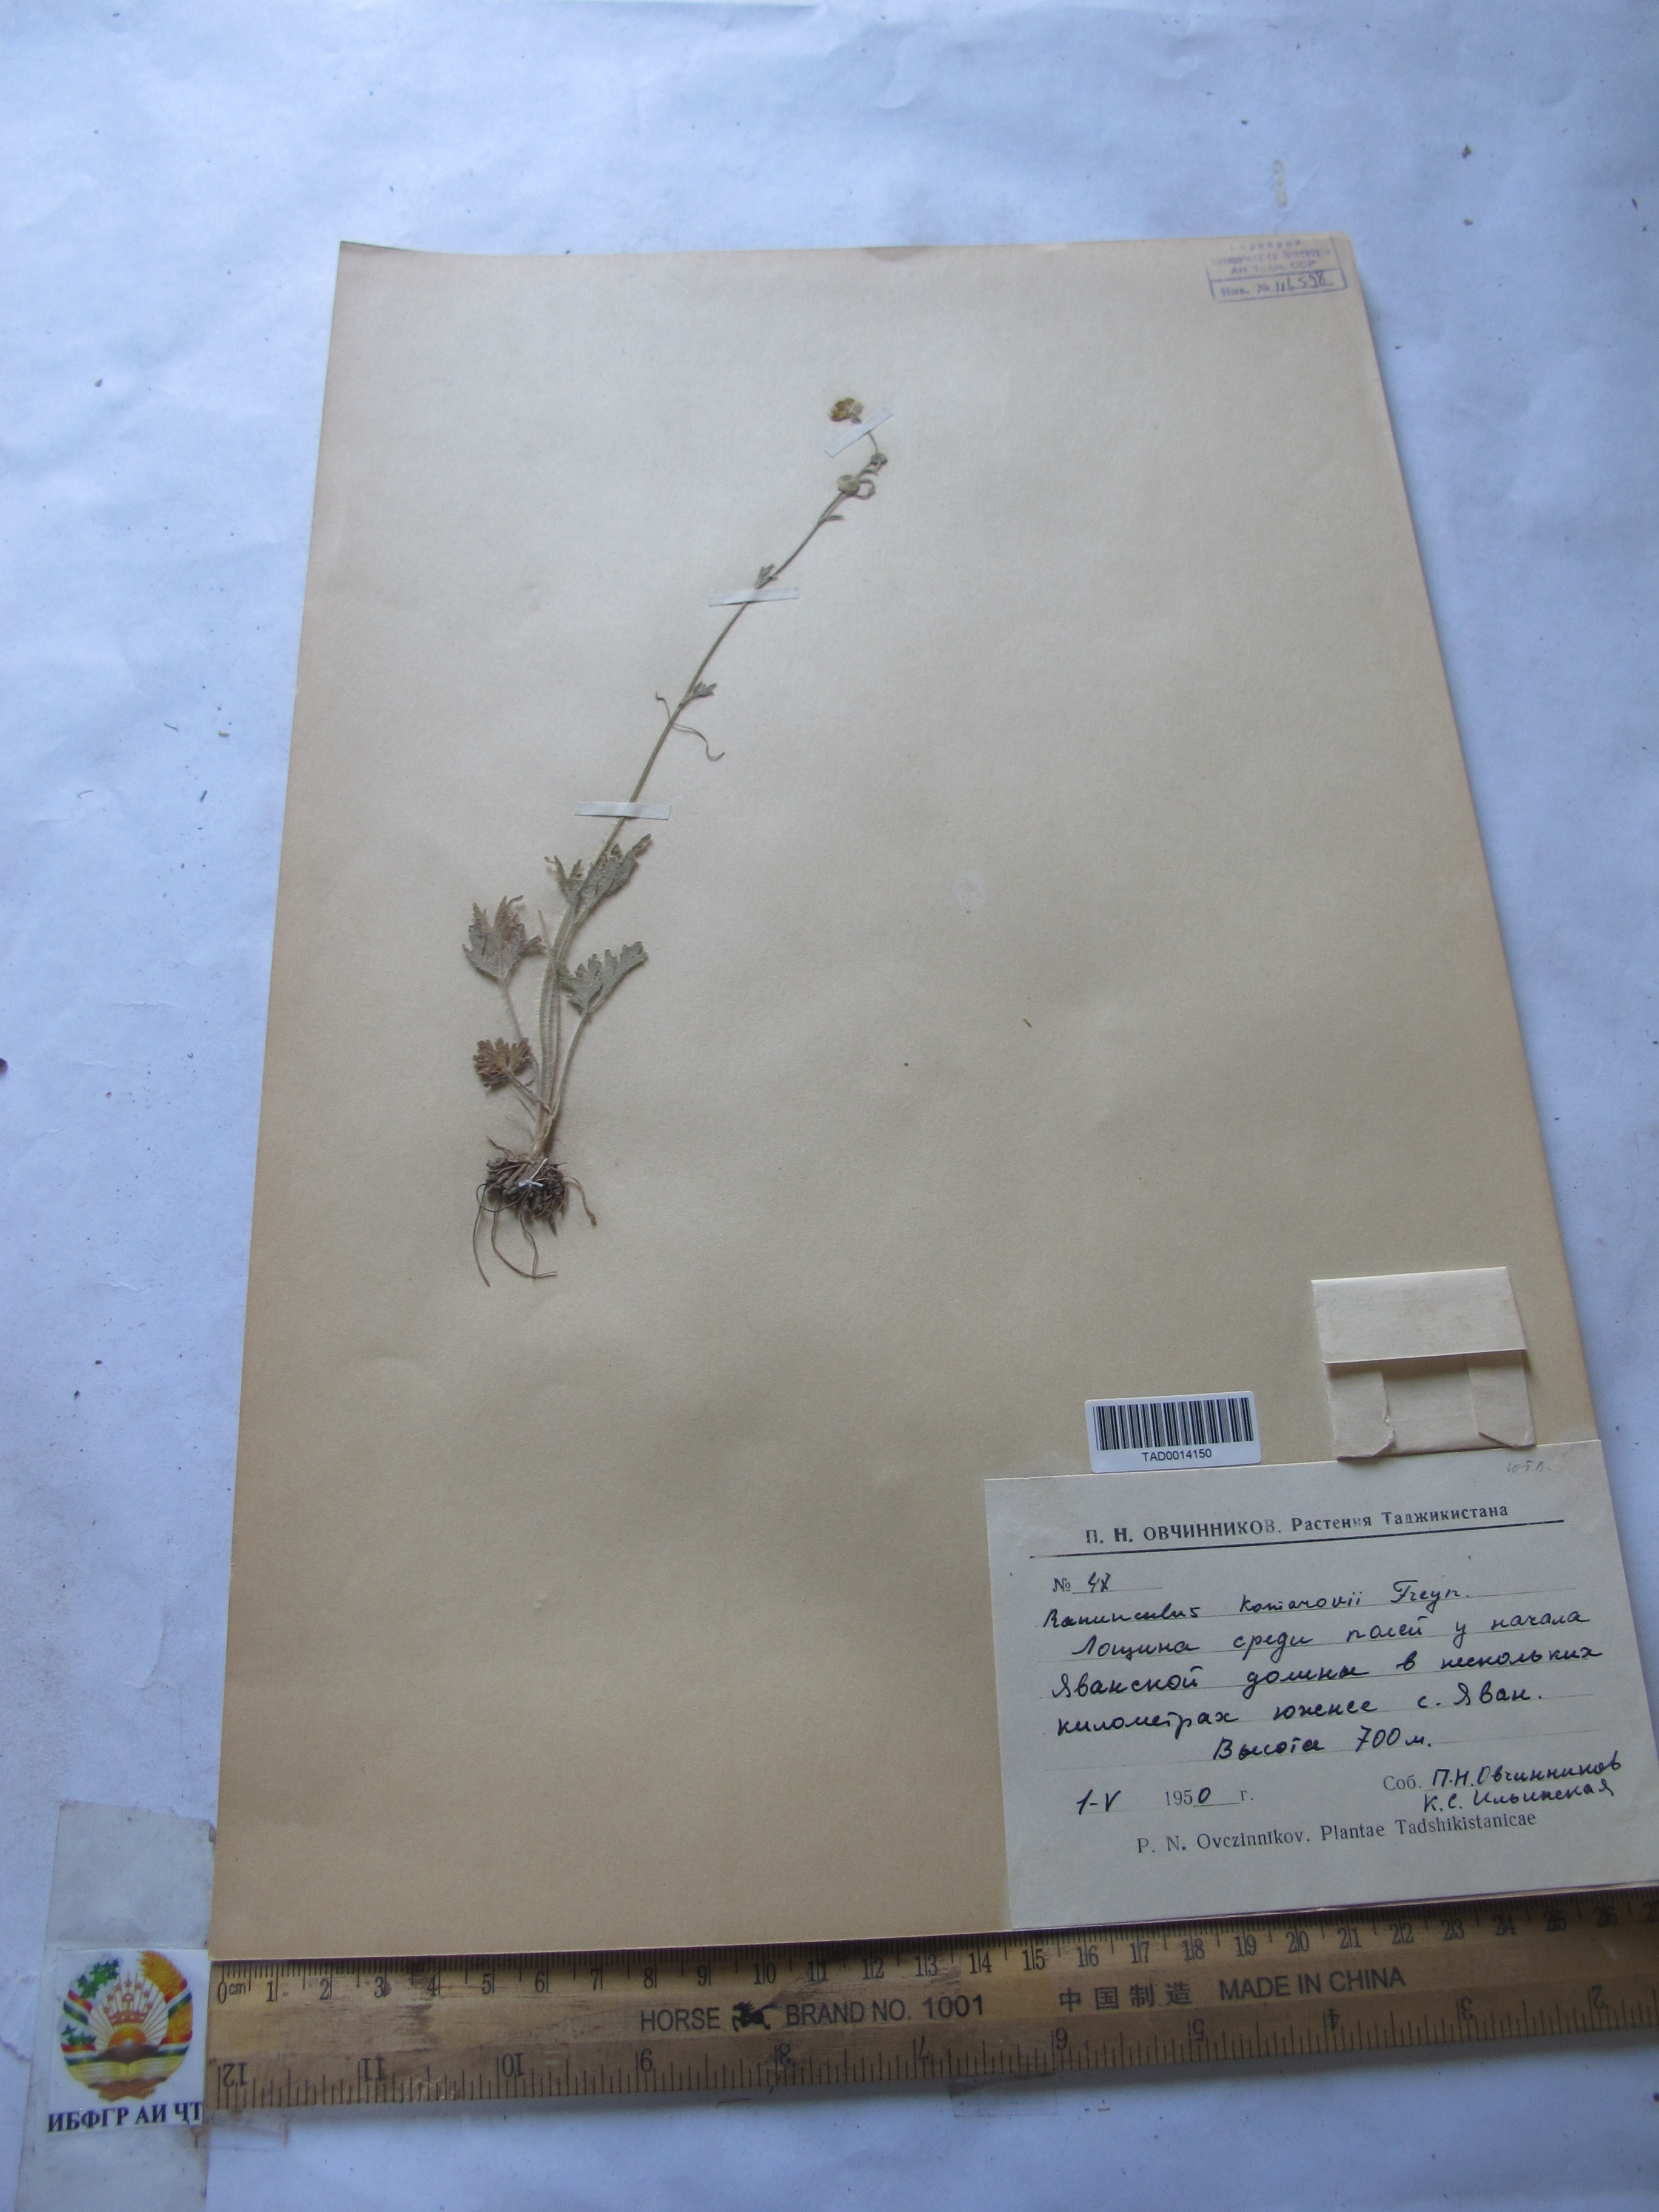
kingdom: Plantae
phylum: Tracheophyta
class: Magnoliopsida
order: Ranunculales
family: Ranunculaceae
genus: Ranunculus
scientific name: Ranunculus komarovii
